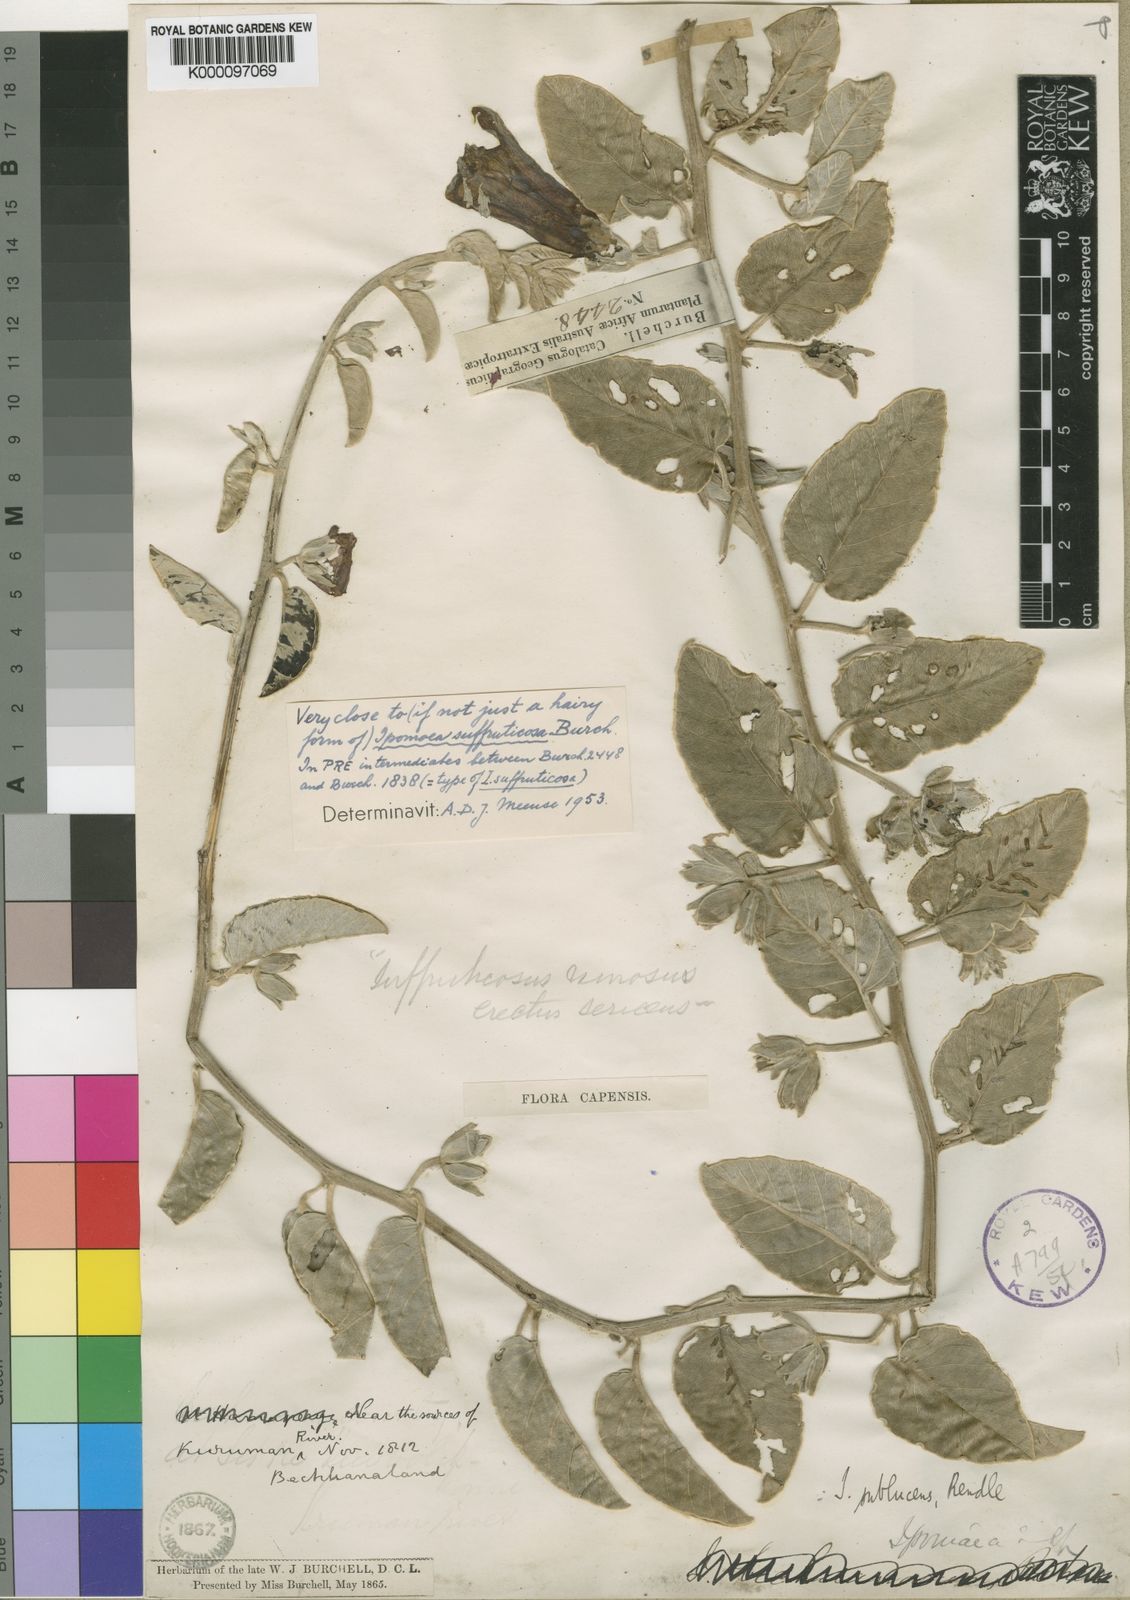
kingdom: Plantae
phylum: Tracheophyta
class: Magnoliopsida
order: Solanales
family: Convolvulaceae
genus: Ipomoea
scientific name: Ipomoea suffruticosa
